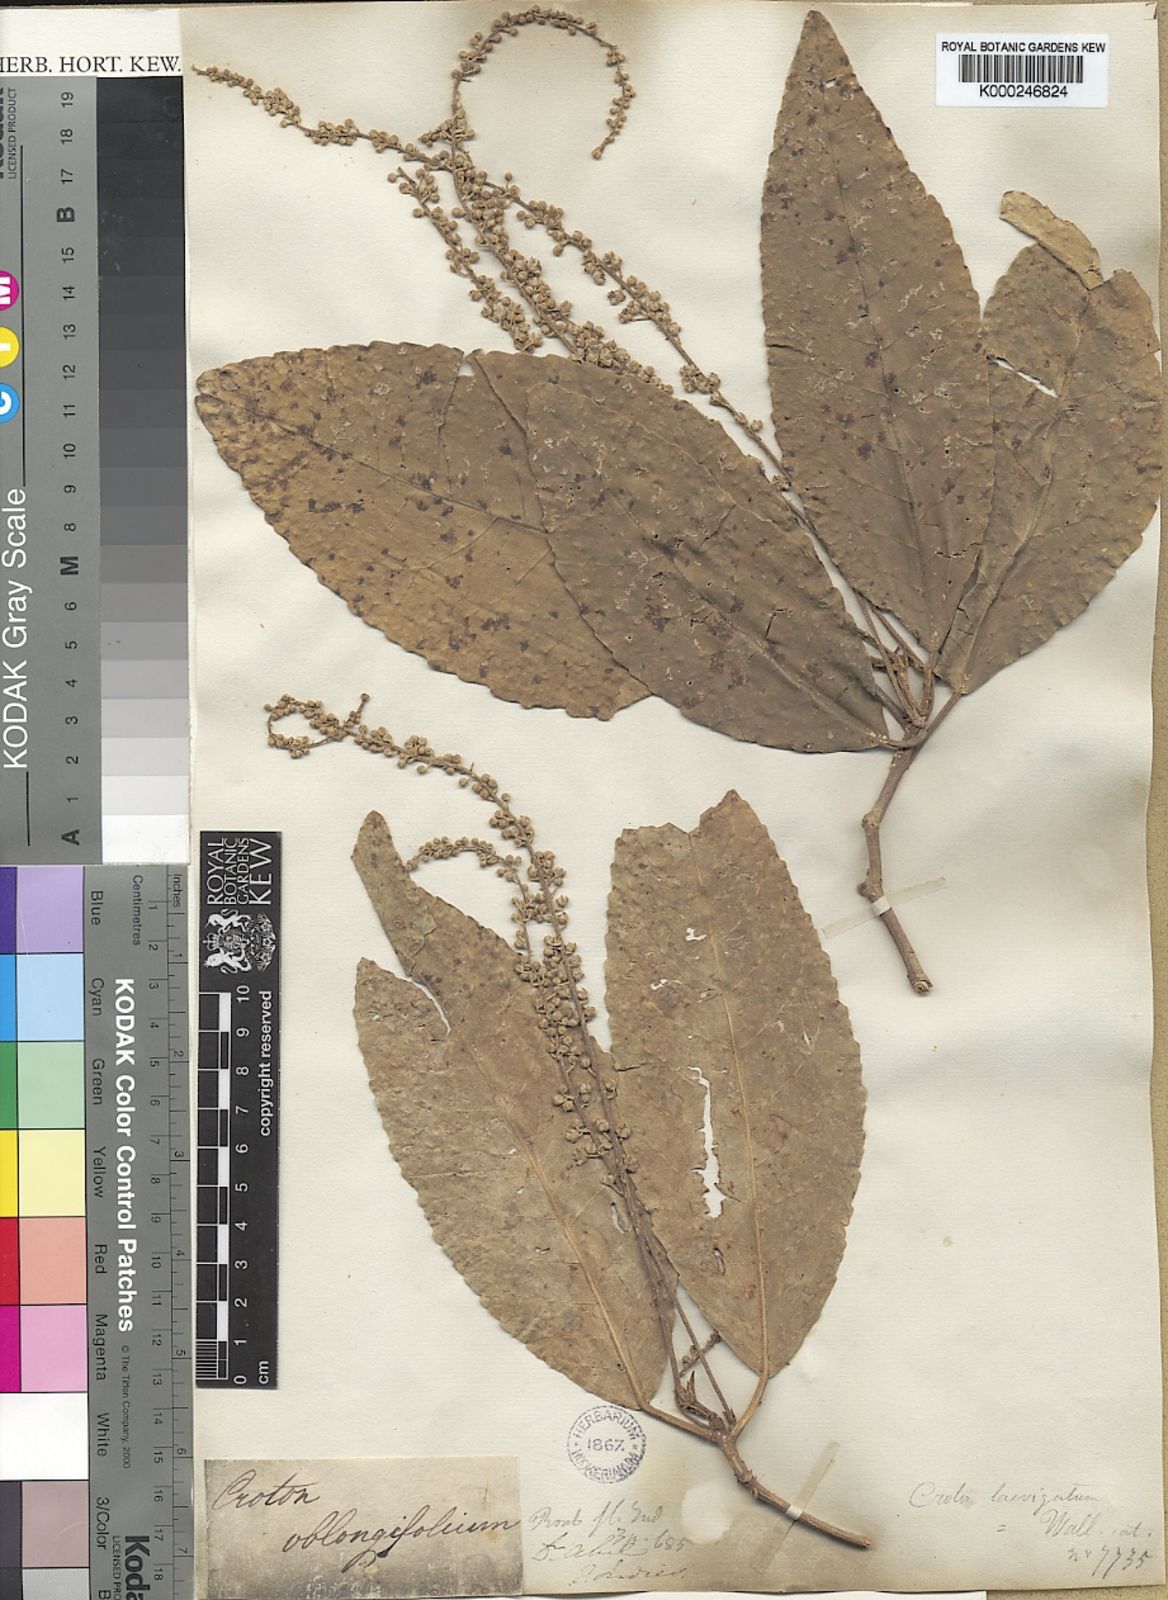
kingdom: Plantae
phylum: Tracheophyta
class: Magnoliopsida
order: Malpighiales
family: Euphorbiaceae
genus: Croton
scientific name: Croton persimilis
